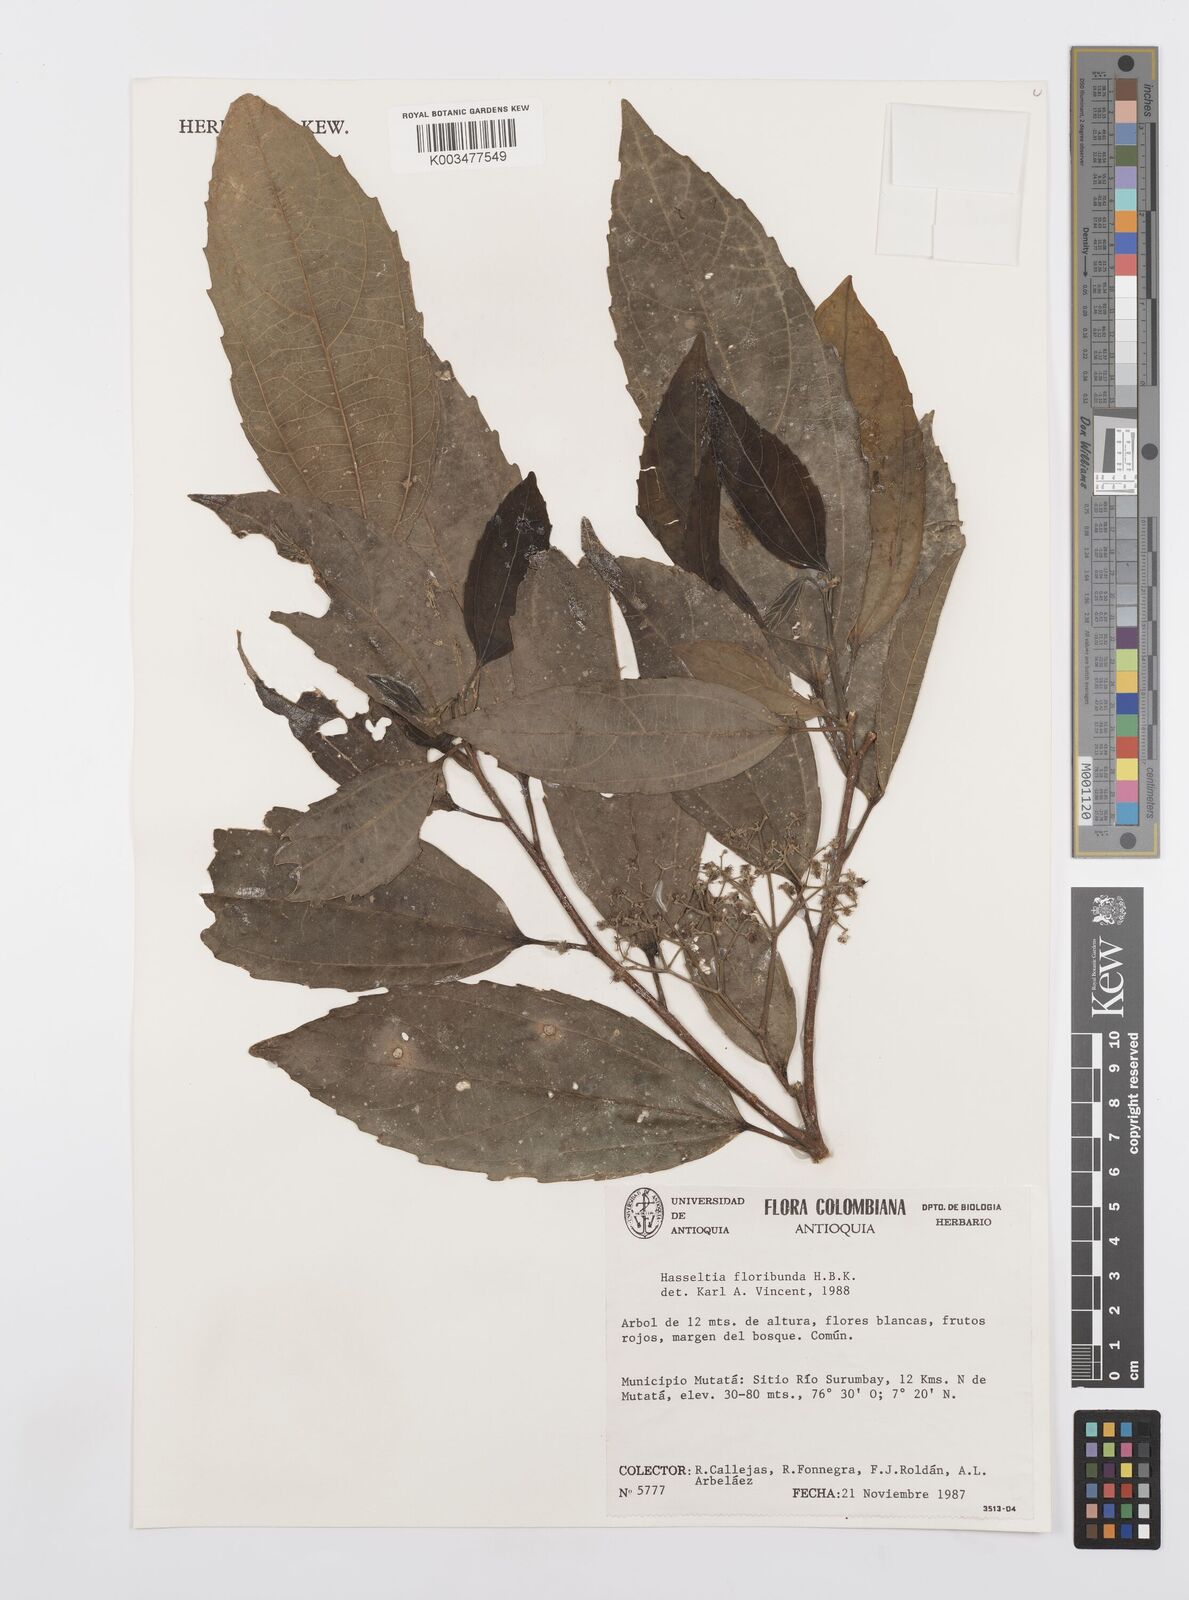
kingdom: Plantae
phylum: Tracheophyta
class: Magnoliopsida
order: Malpighiales
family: Salicaceae
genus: Hasseltia
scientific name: Hasseltia floribunda
